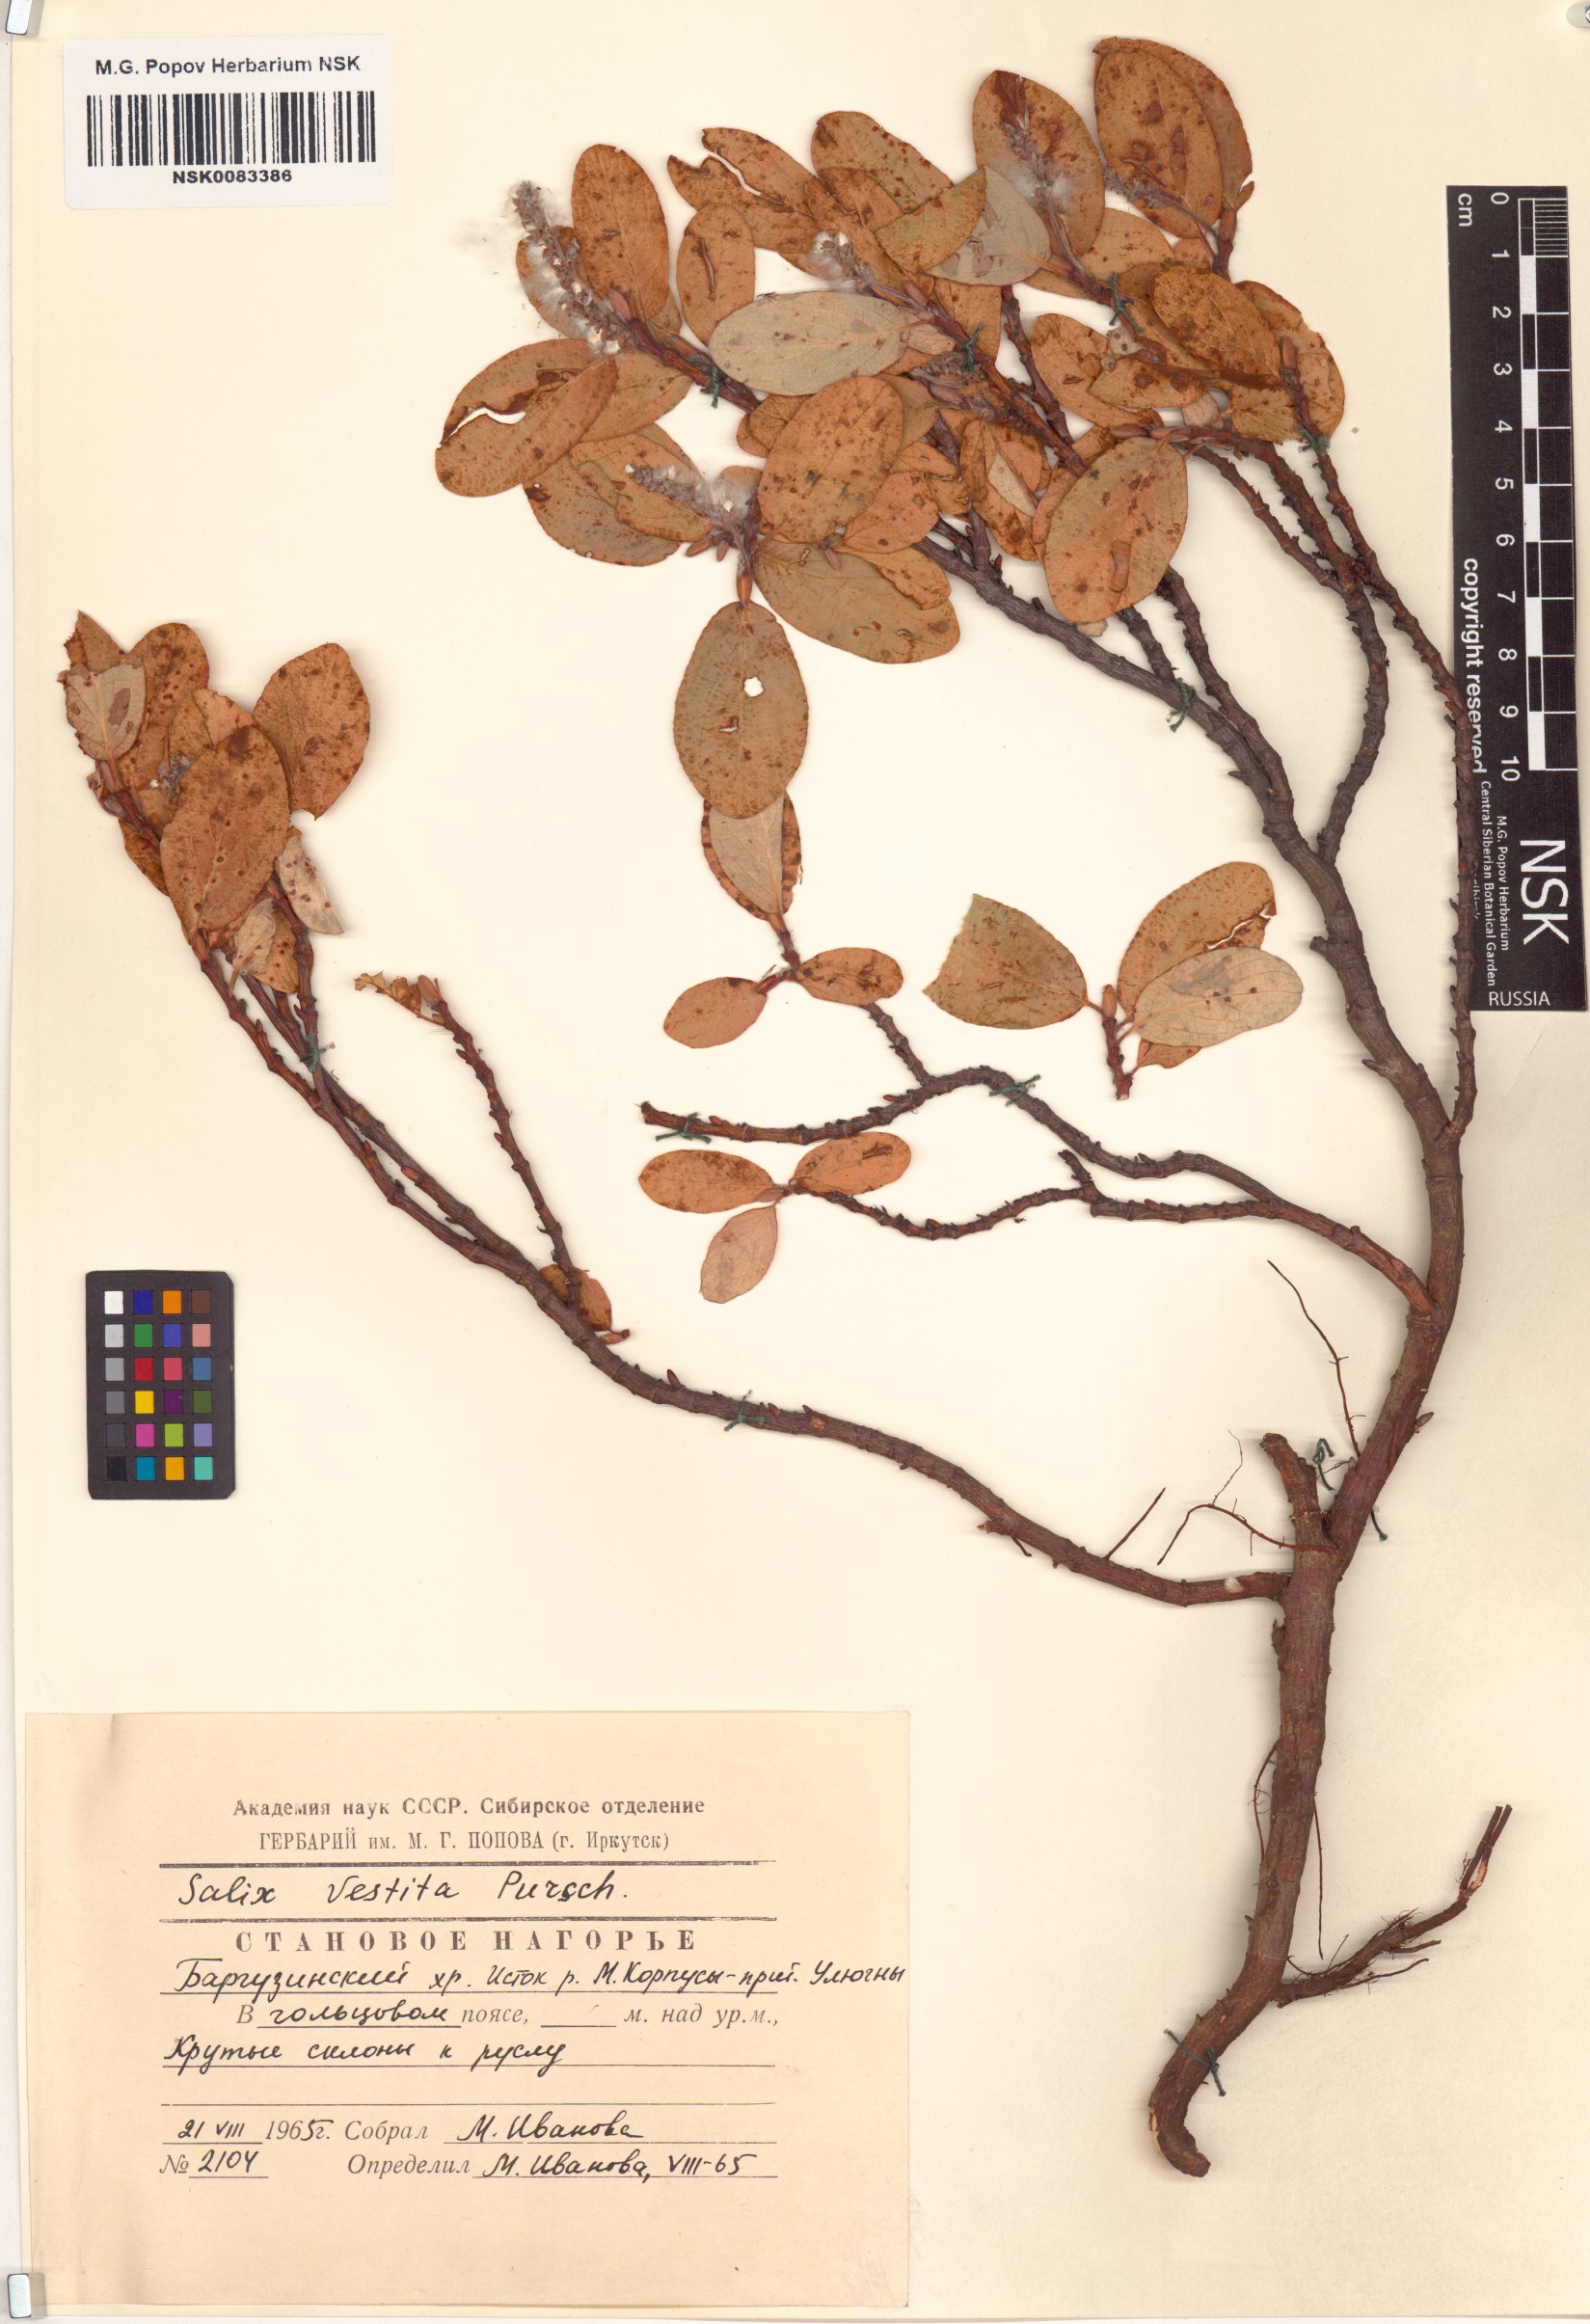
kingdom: Plantae
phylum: Tracheophyta
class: Magnoliopsida
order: Malpighiales
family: Salicaceae
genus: Salix
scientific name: Salix vestita
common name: Hairy willow
